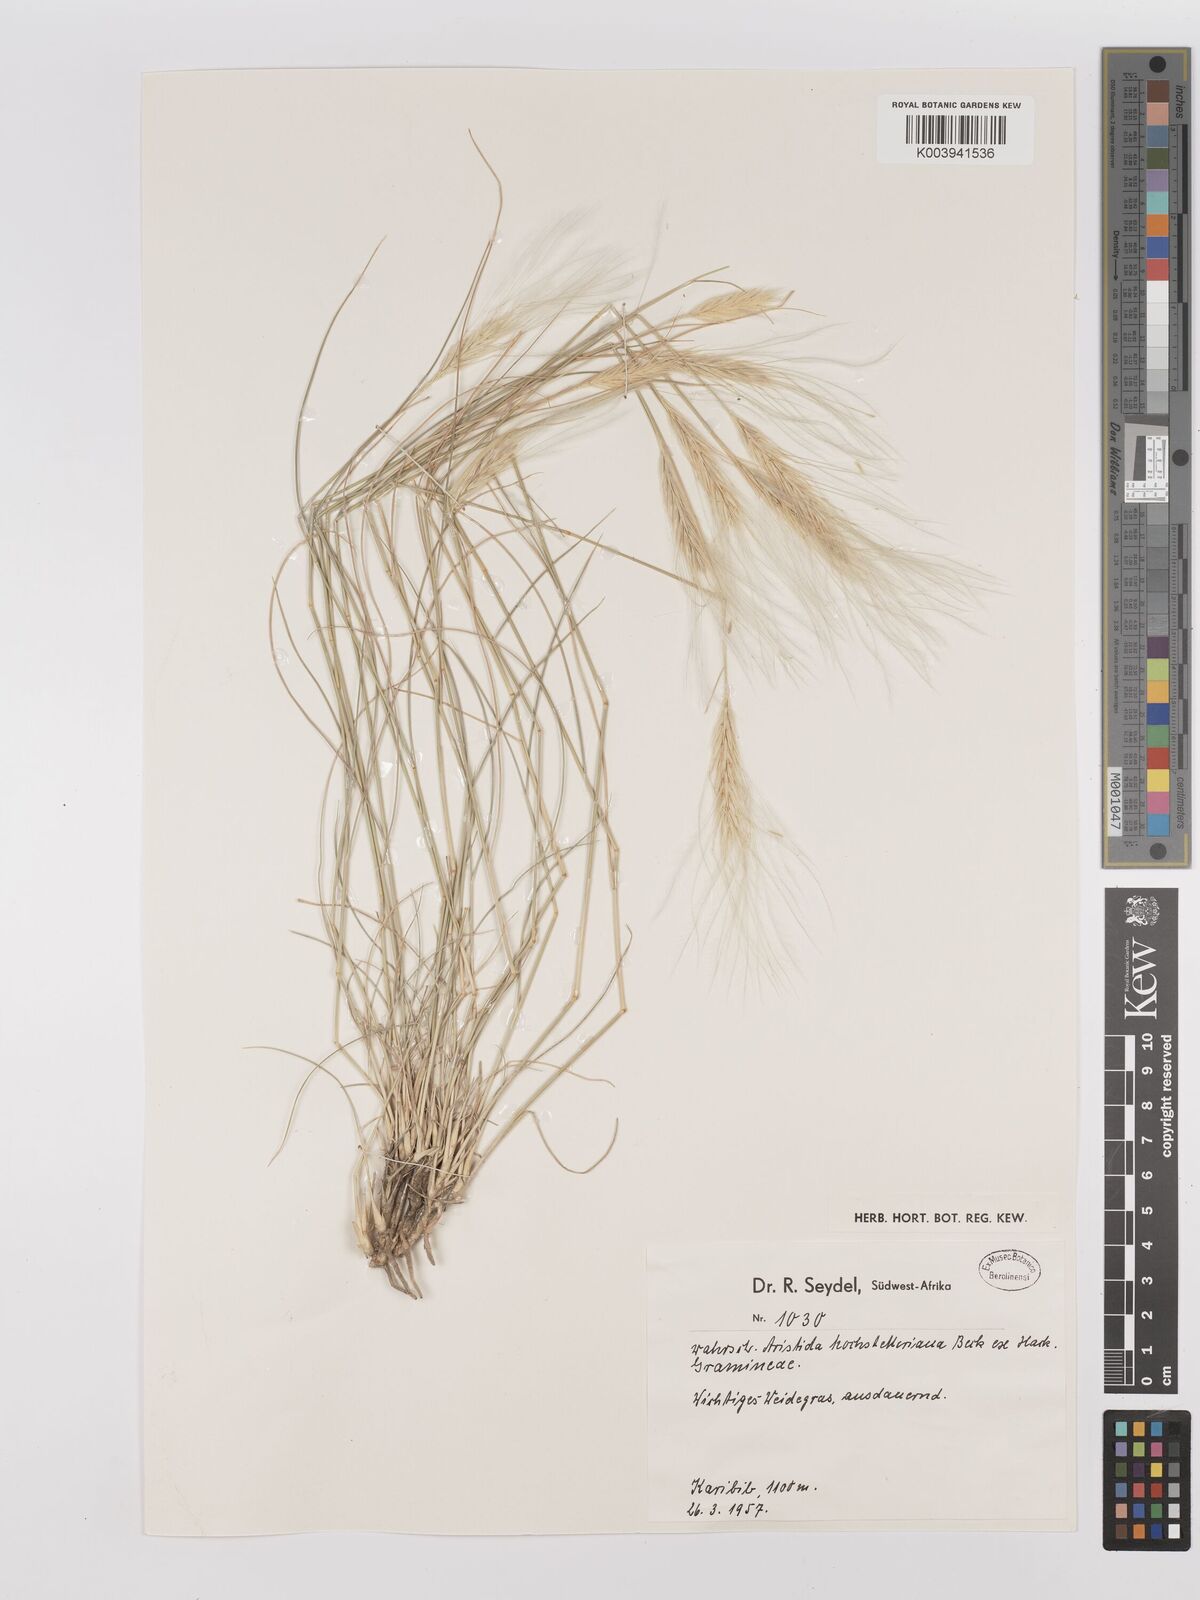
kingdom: Plantae
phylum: Tracheophyta
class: Liliopsida
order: Poales
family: Poaceae
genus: Stipagrostis
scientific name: Stipagrostis hochstetteriana
